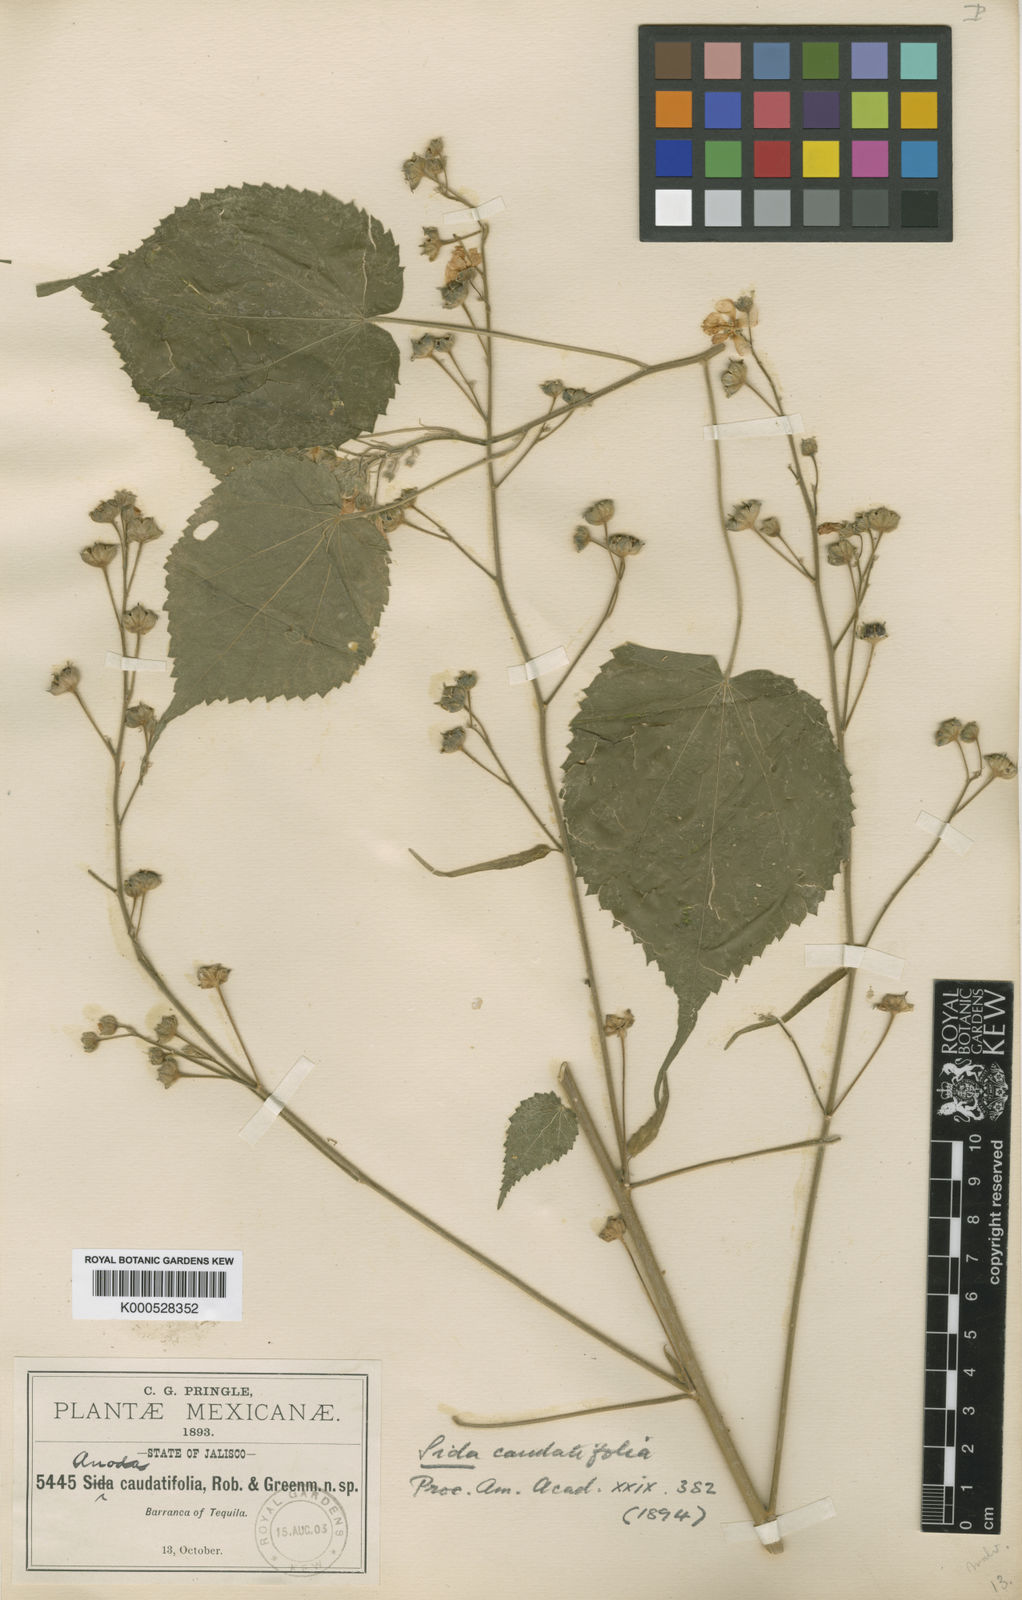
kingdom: Plantae
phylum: Tracheophyta
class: Magnoliopsida
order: Malvales
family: Malvaceae
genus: Anoda
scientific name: Anoda abutiloides
